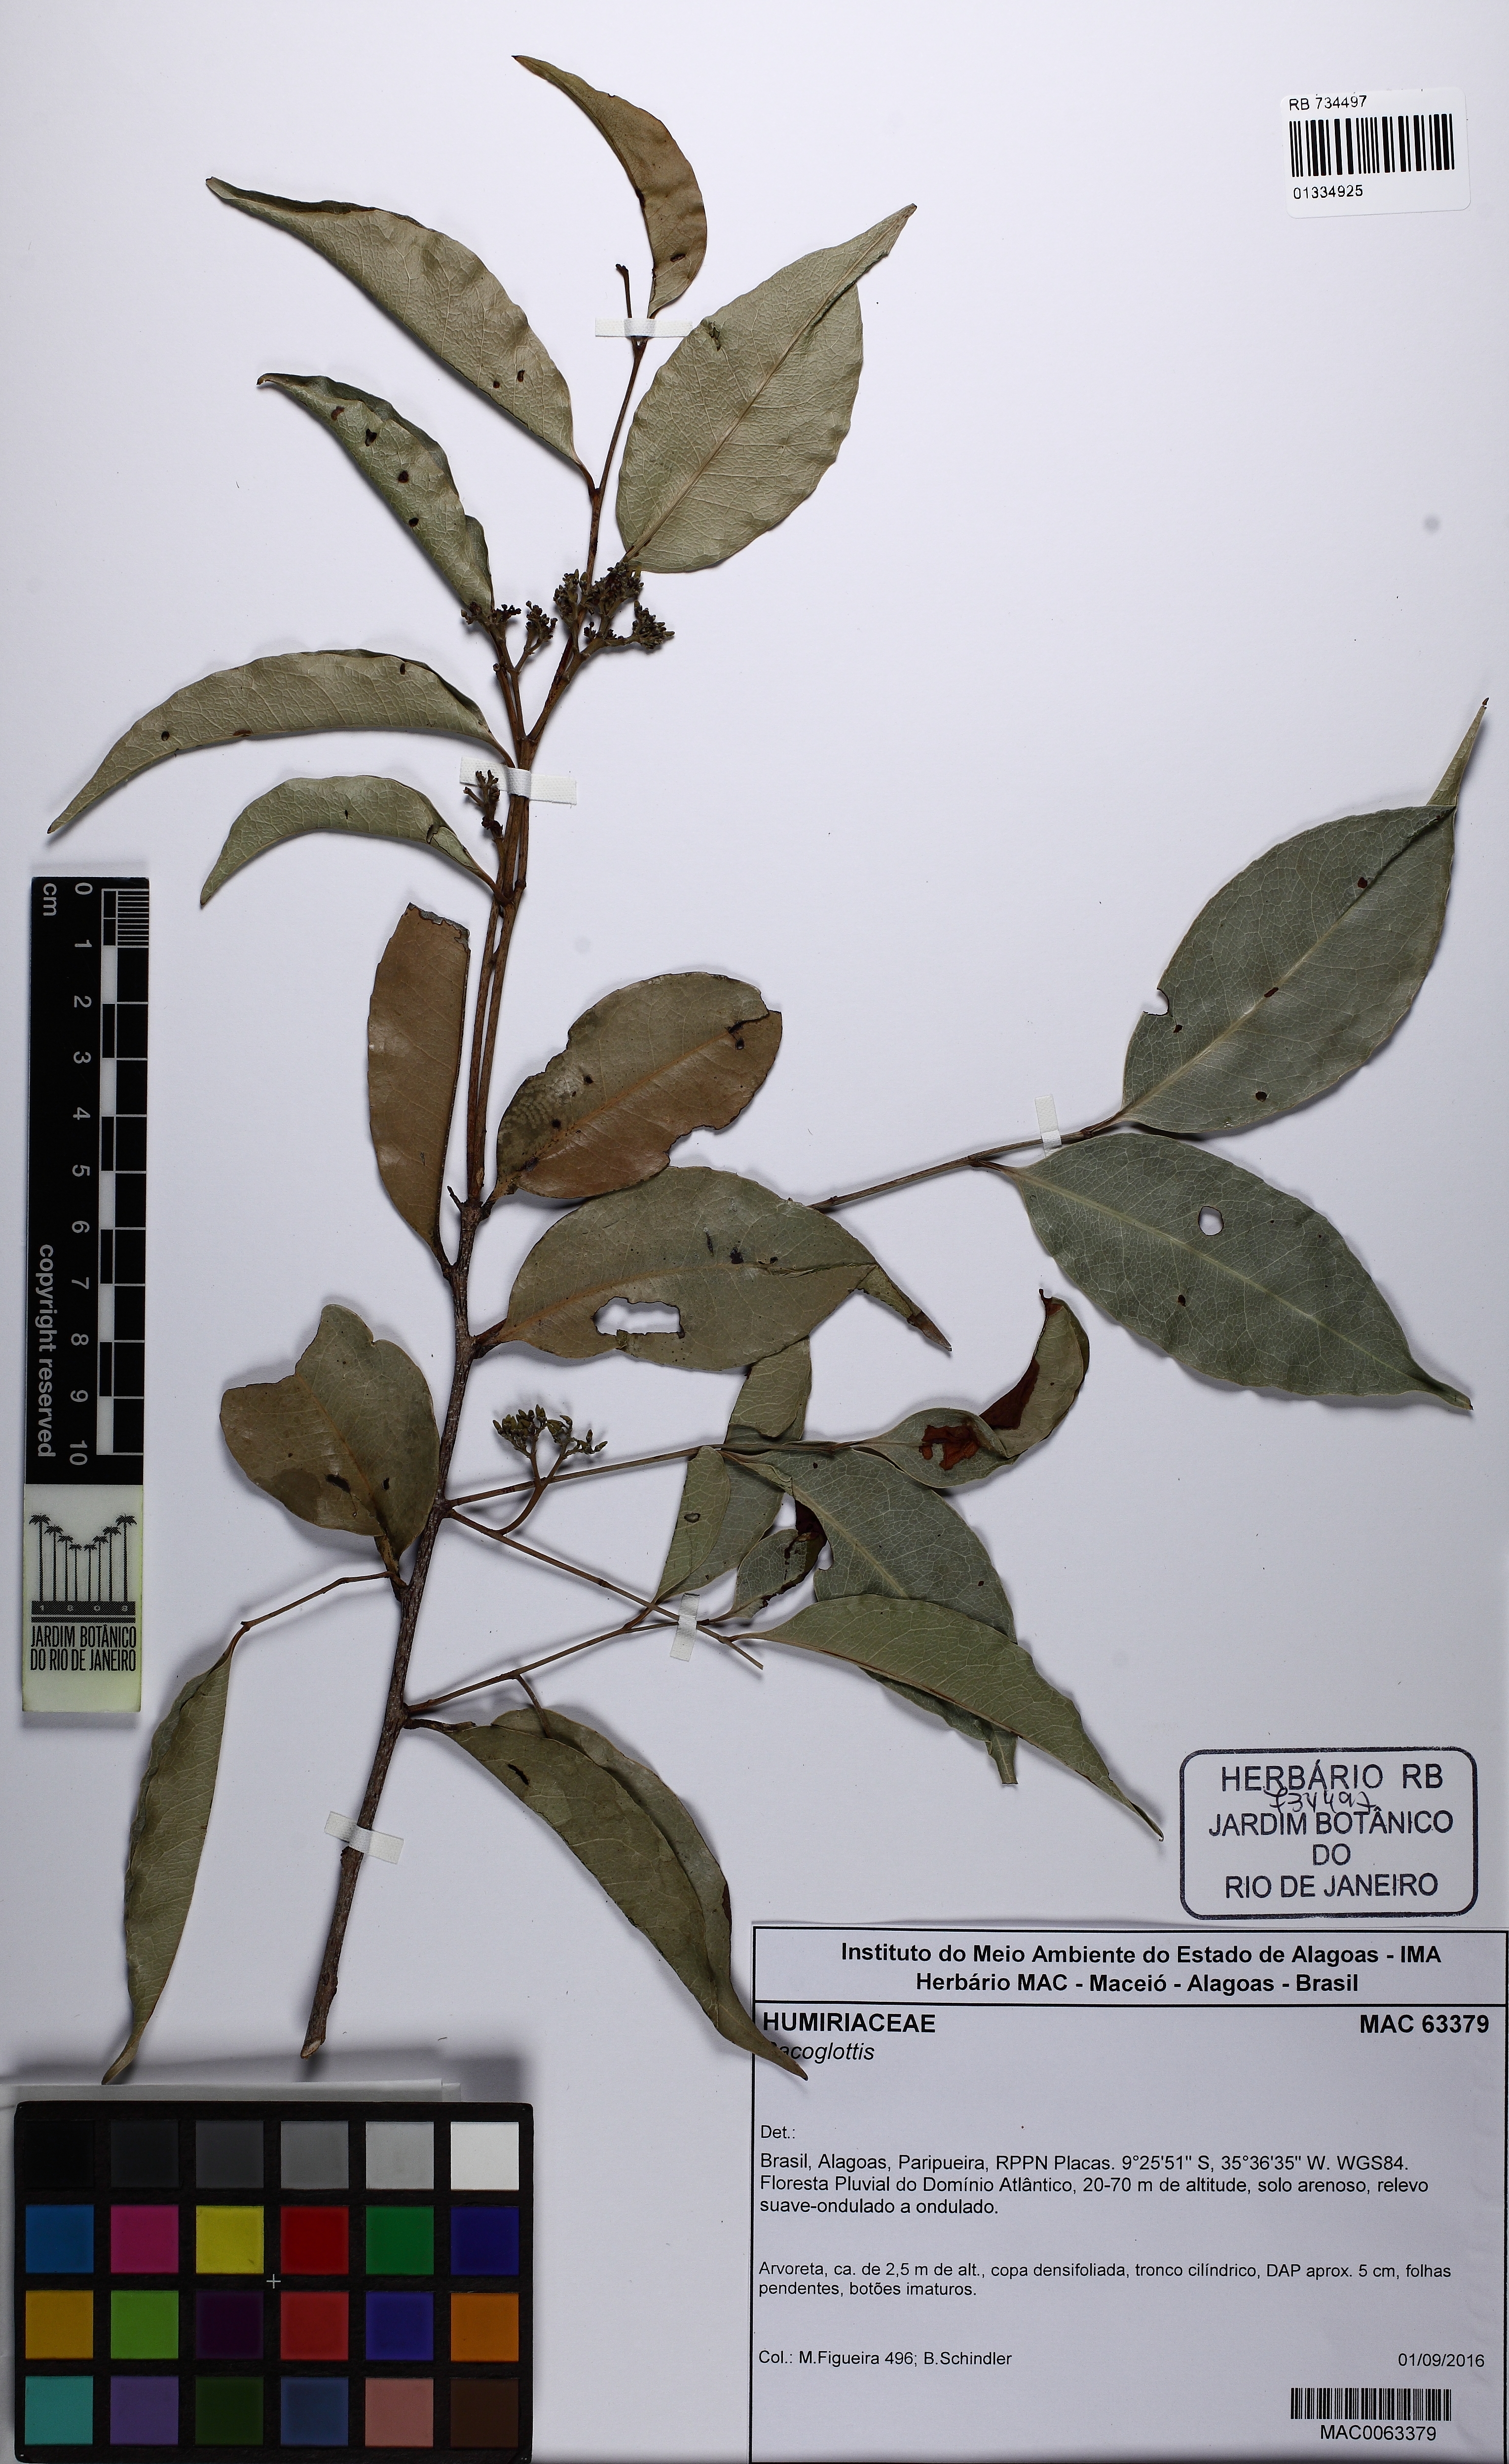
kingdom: Plantae
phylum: Tracheophyta
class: Magnoliopsida
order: Malpighiales
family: Humiriaceae
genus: Sacoglottis
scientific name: Sacoglottis
